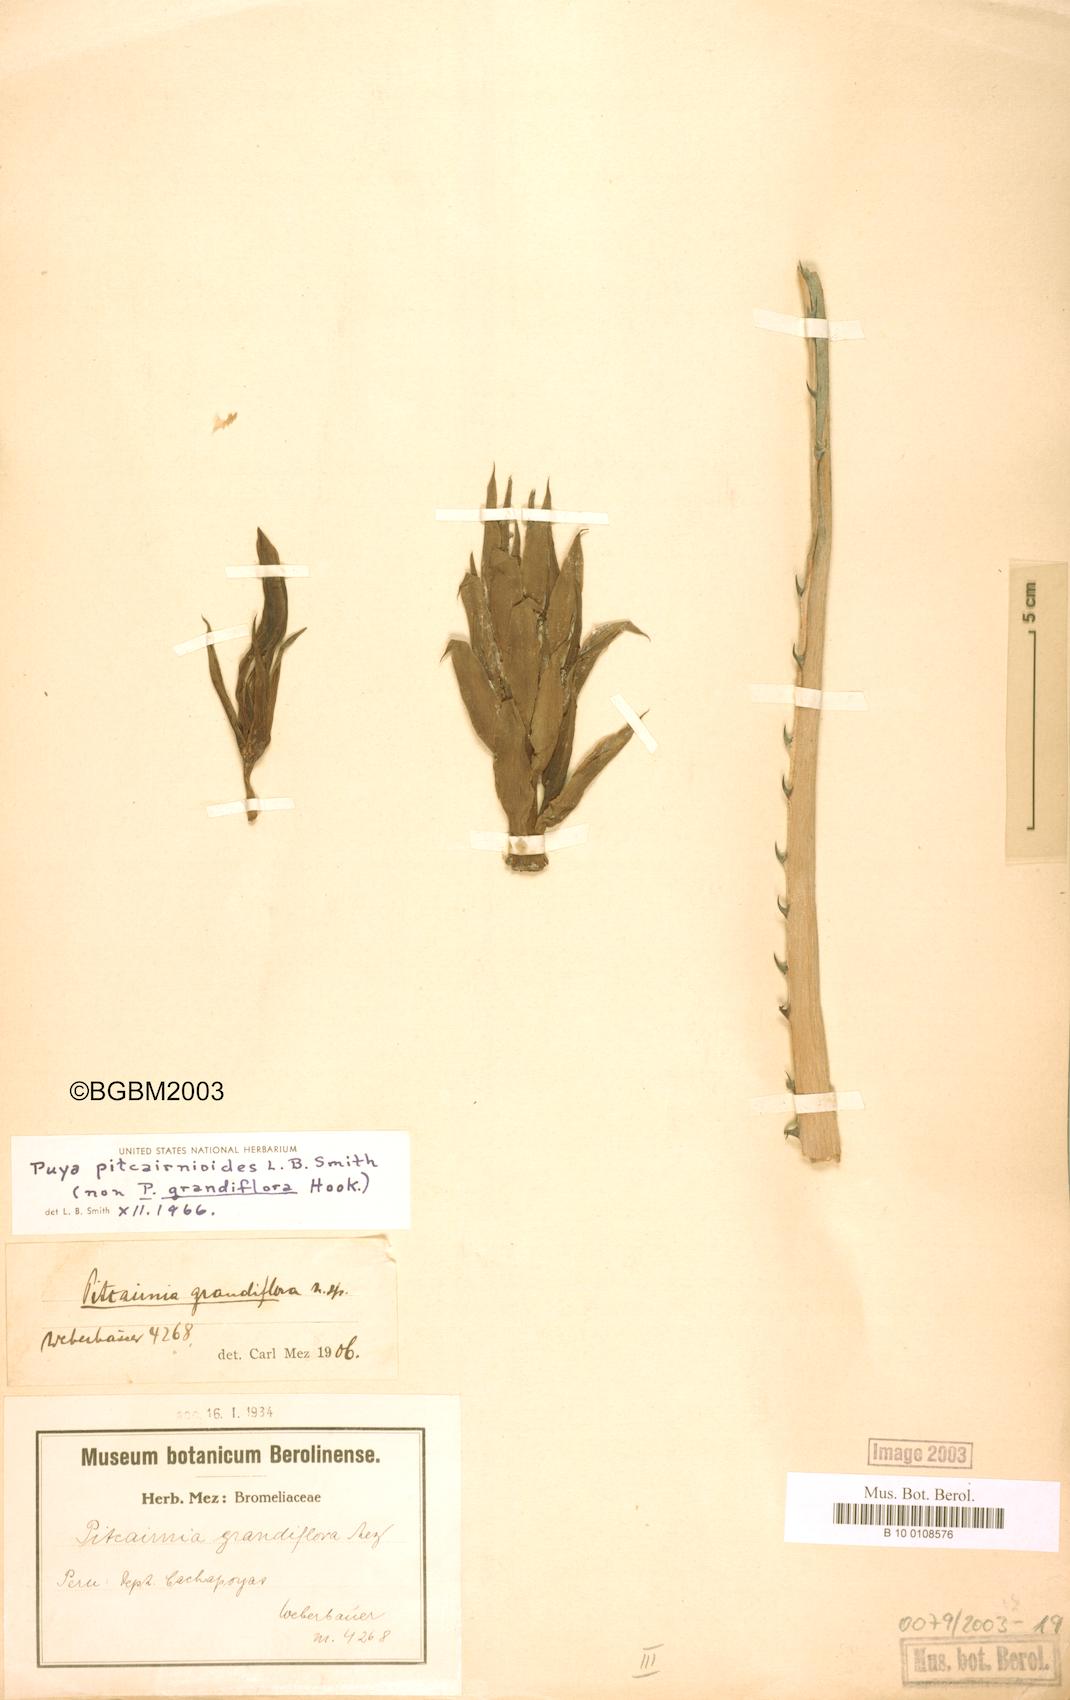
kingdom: Plantae
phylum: Tracheophyta
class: Liliopsida
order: Poales
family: Bromeliaceae
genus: Puya
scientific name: Puya pitcairnioides
